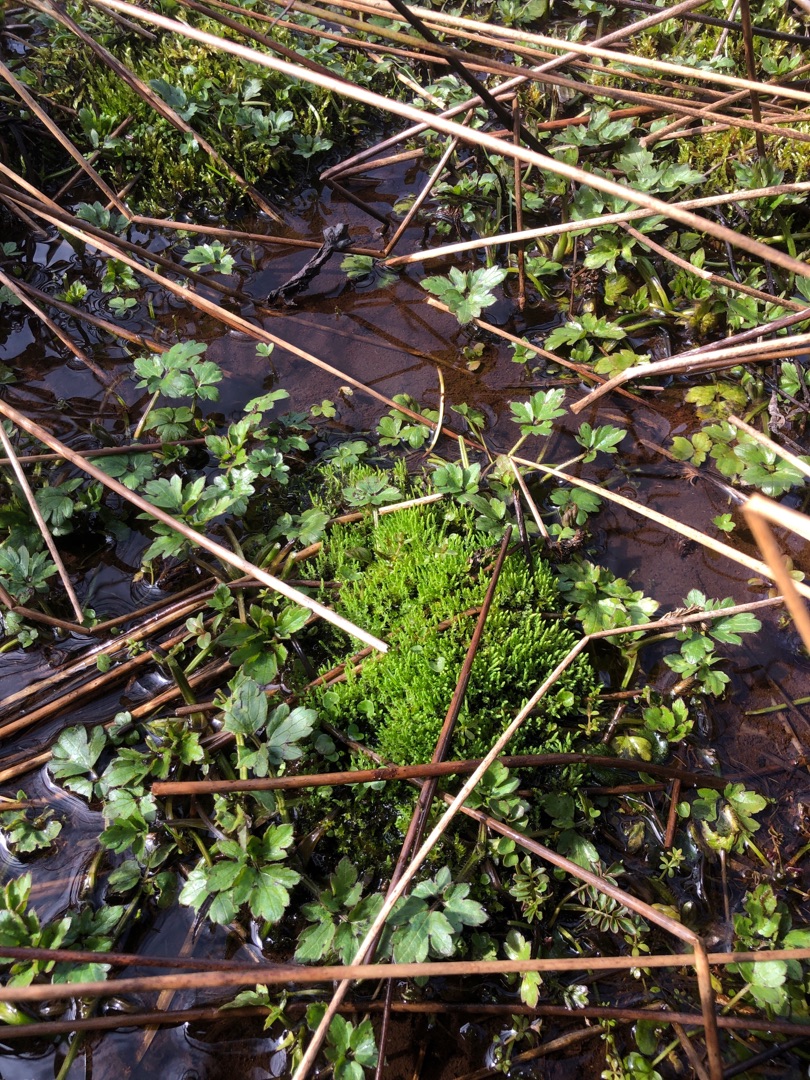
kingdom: Plantae
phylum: Bryophyta
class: Bryopsida
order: Bryales
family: Mniaceae
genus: Pohlia
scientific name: Pohlia wahlenbergii
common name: Lysegrøn voksmos
